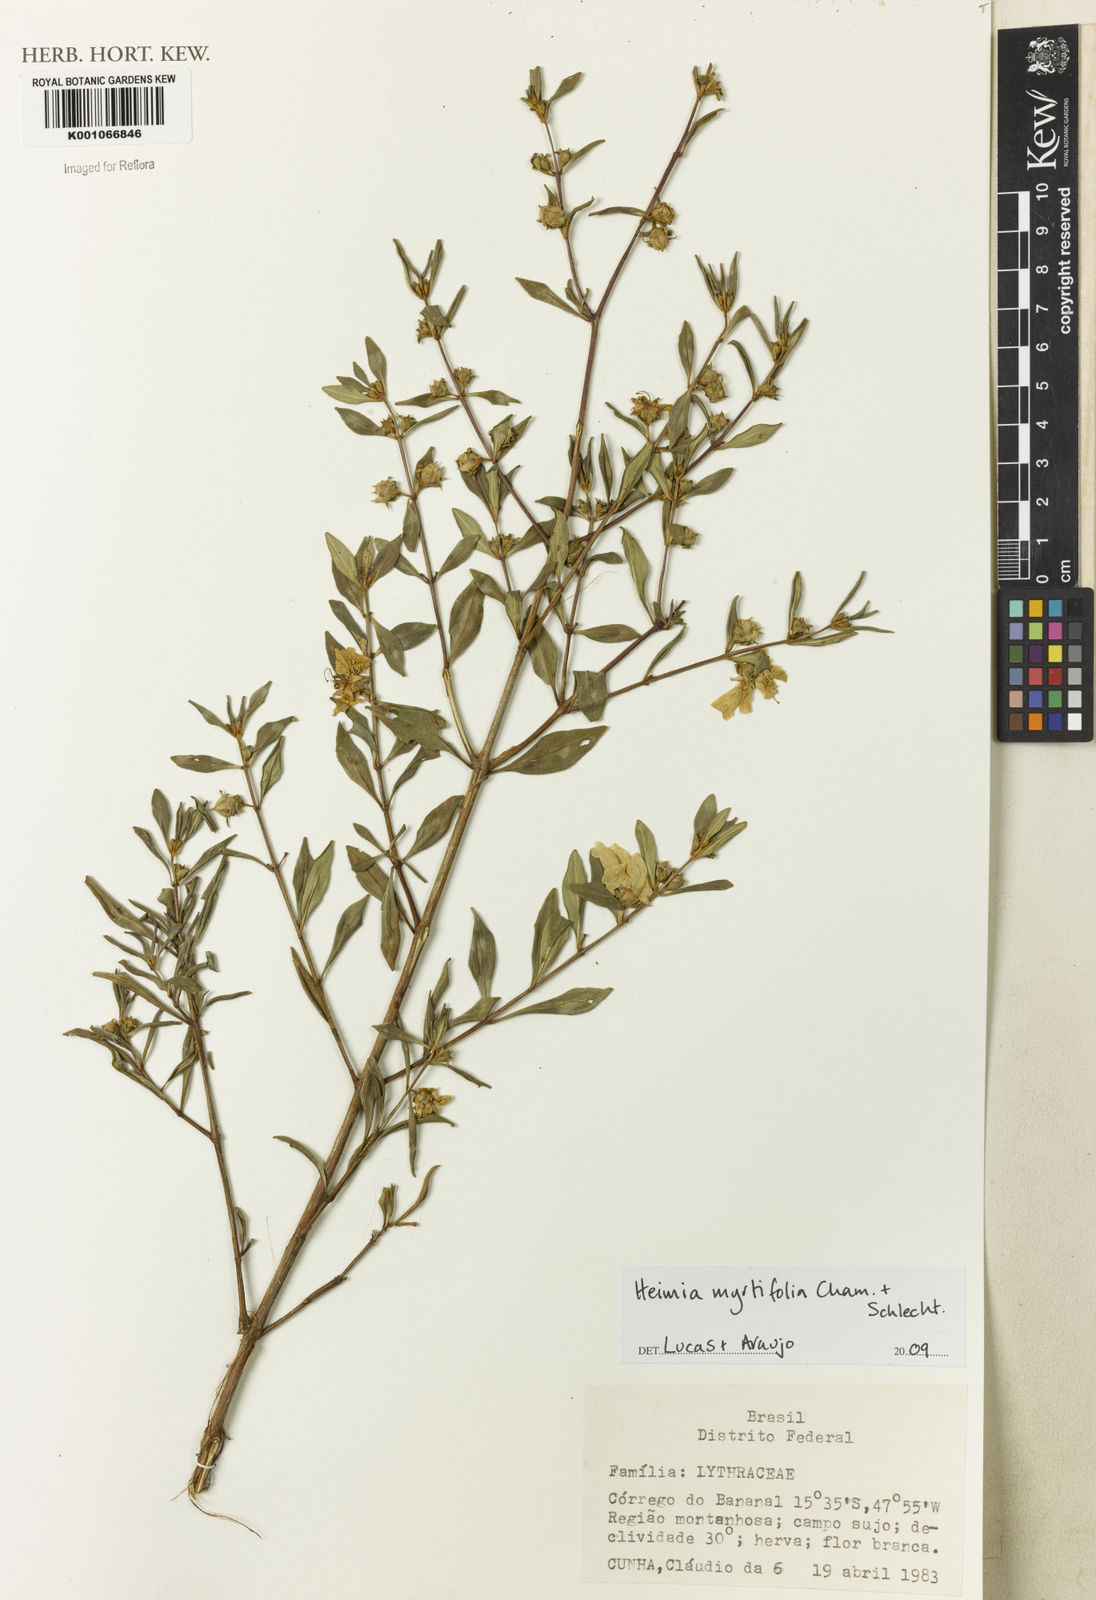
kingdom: Plantae
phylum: Tracheophyta
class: Magnoliopsida
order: Myrtales
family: Lythraceae
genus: Heimia
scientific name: Heimia apetala
